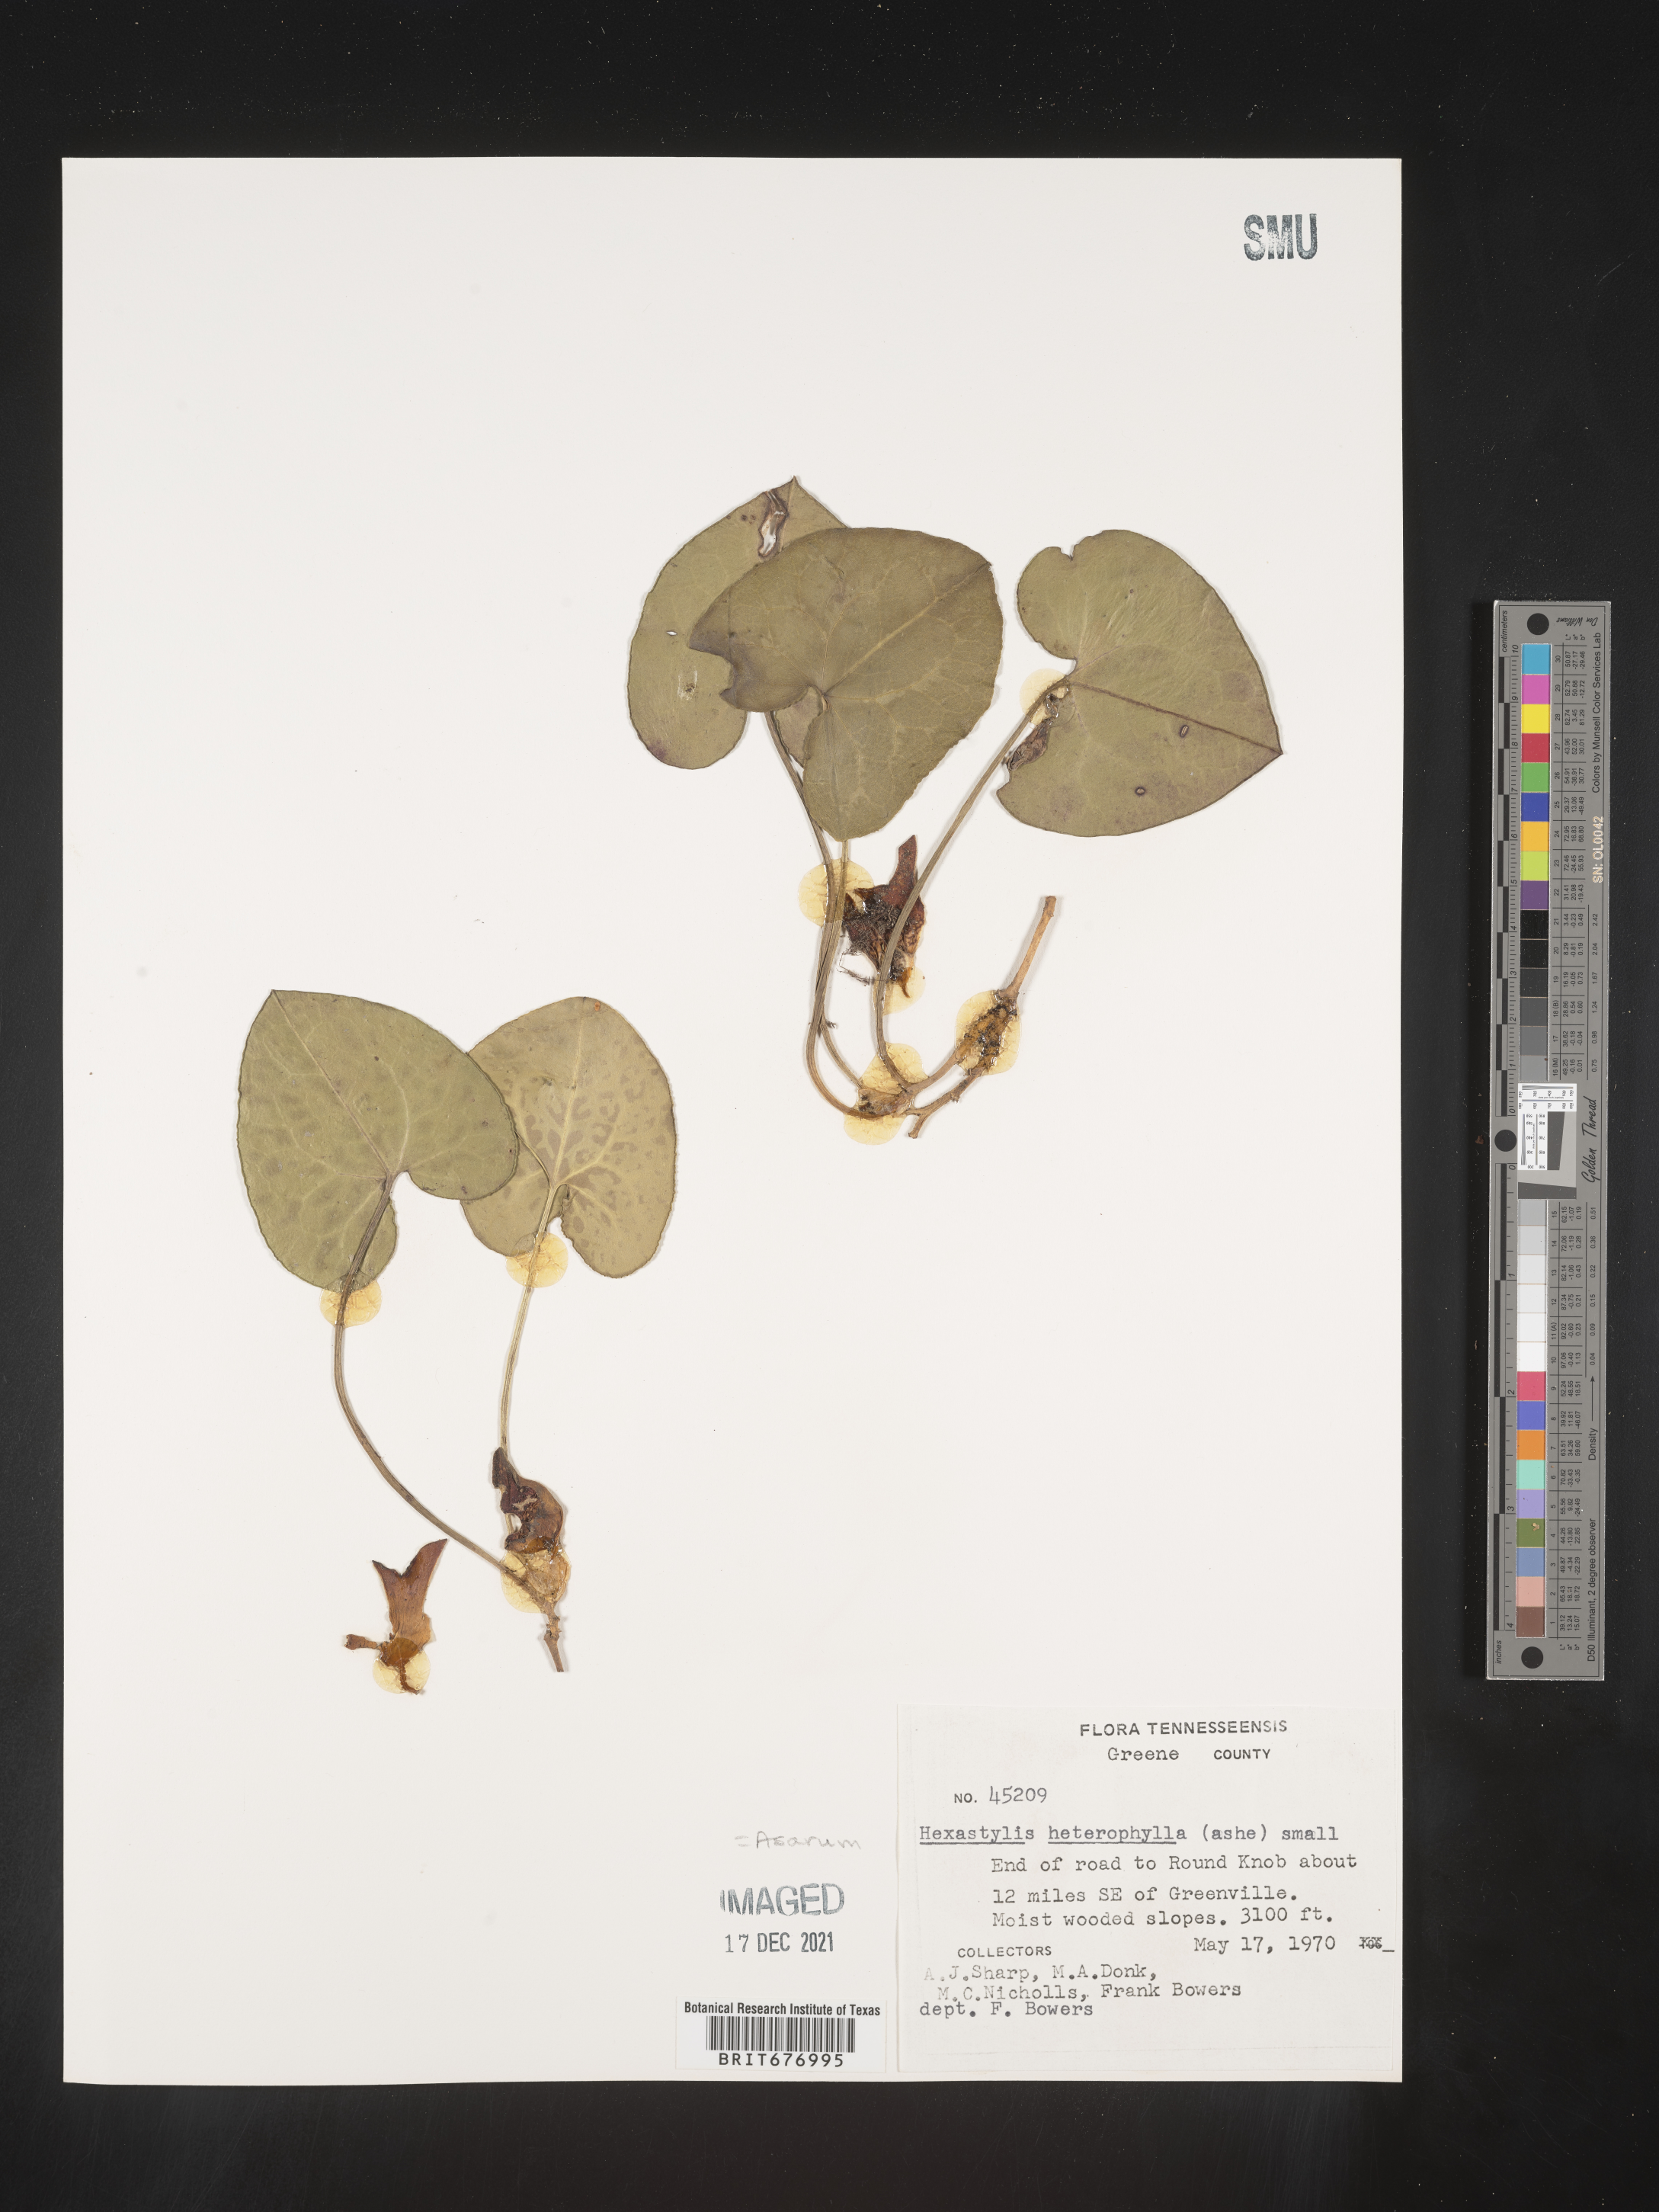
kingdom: Plantae
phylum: Tracheophyta
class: Magnoliopsida
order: Piperales
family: Aristolochiaceae
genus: Asarum
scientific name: Asarum
